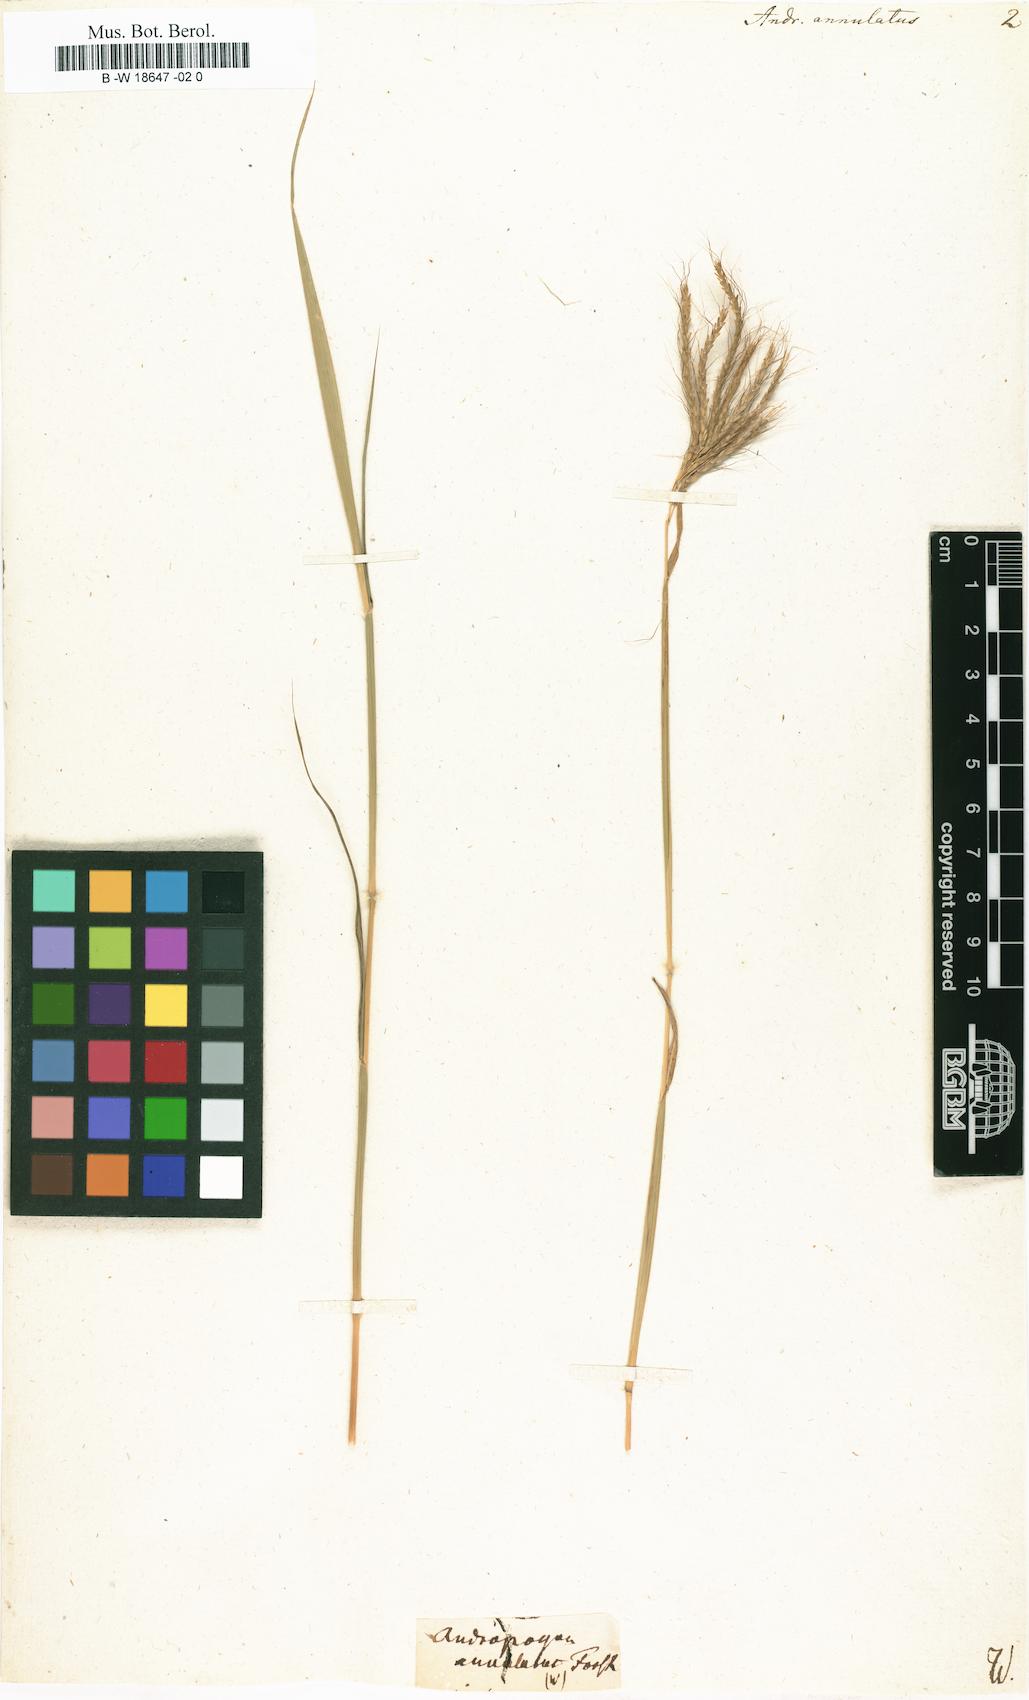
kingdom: Plantae
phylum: Tracheophyta
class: Liliopsida
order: Poales
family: Poaceae
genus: Andropogon
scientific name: Andropogon annulatus
